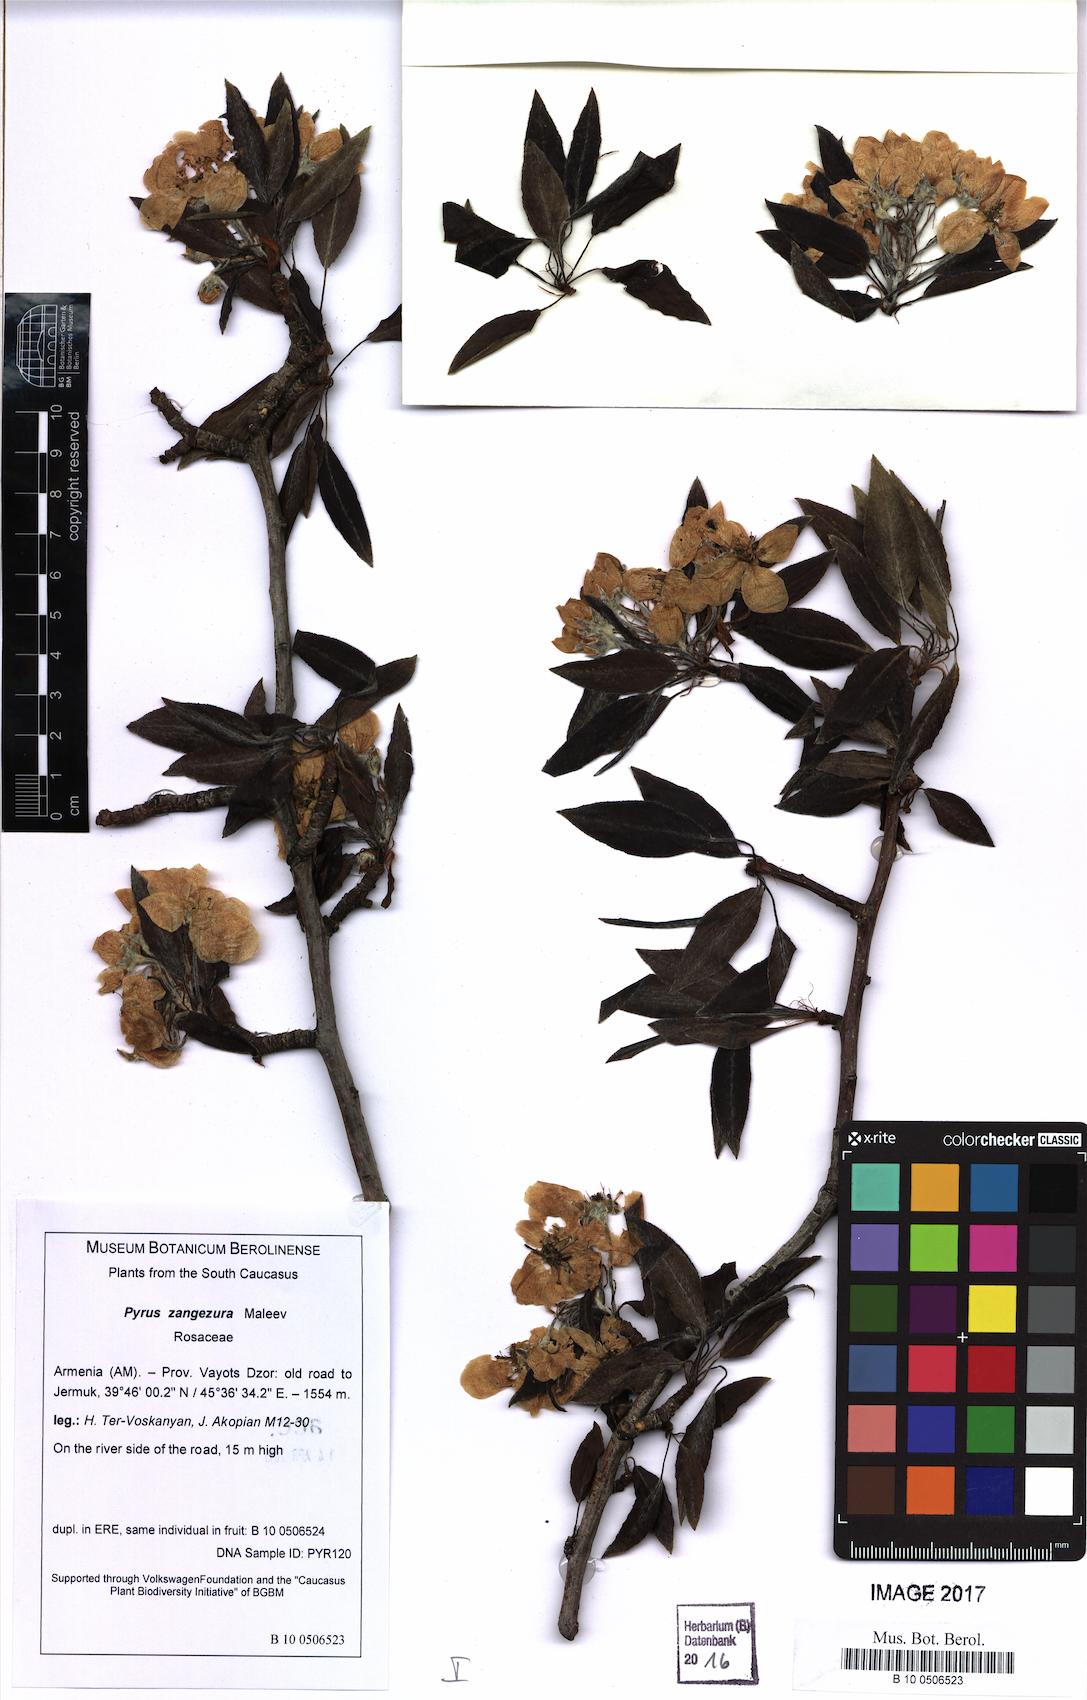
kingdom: Plantae
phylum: Tracheophyta
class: Magnoliopsida
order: Rosales
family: Rosaceae
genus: Pyrus
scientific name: Pyrus zangezura
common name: Zangezurian pear
